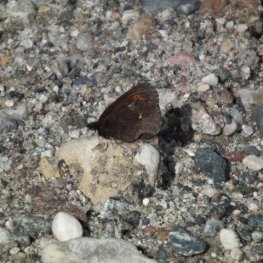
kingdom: Animalia
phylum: Arthropoda
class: Insecta
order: Lepidoptera
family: Nymphalidae
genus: Erebia
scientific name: Erebia disa
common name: Taiga Alpine
